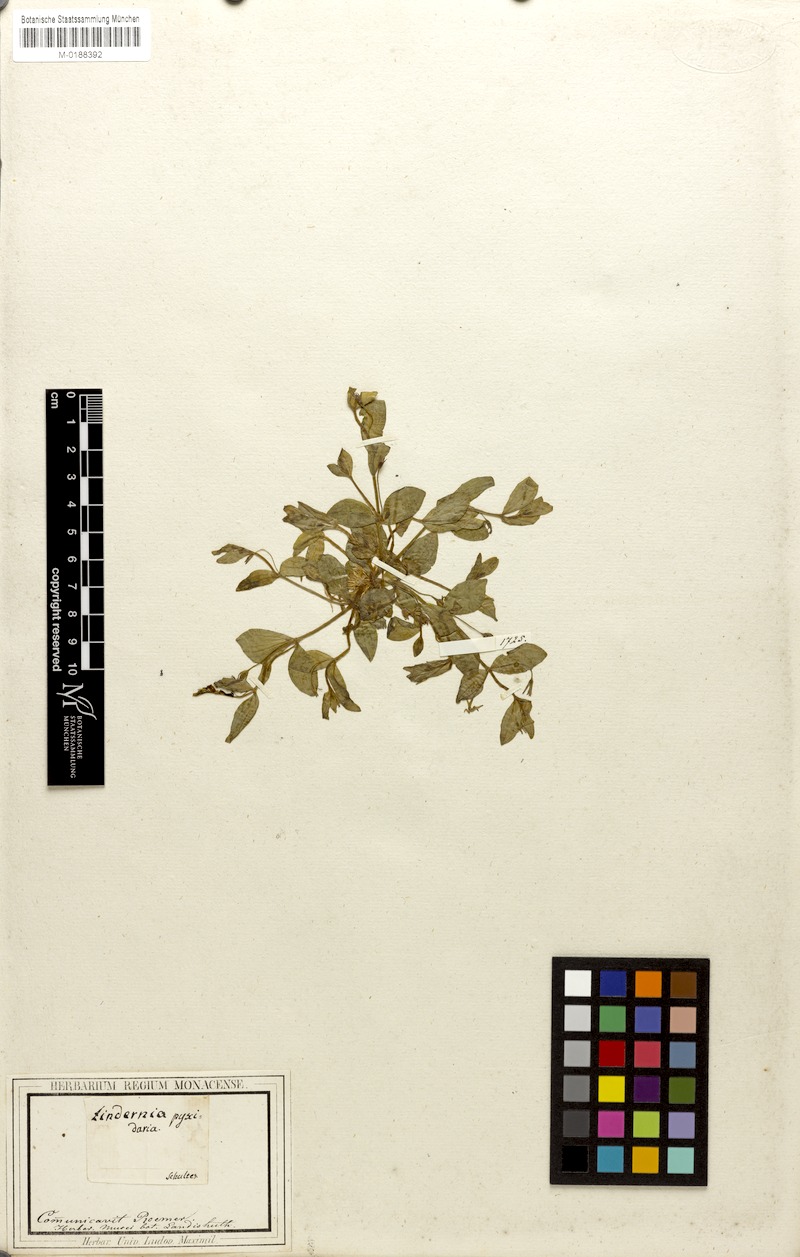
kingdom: Plantae
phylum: Tracheophyta
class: Magnoliopsida
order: Lamiales
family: Linderniaceae
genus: Lindernia
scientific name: Lindernia procumbens
